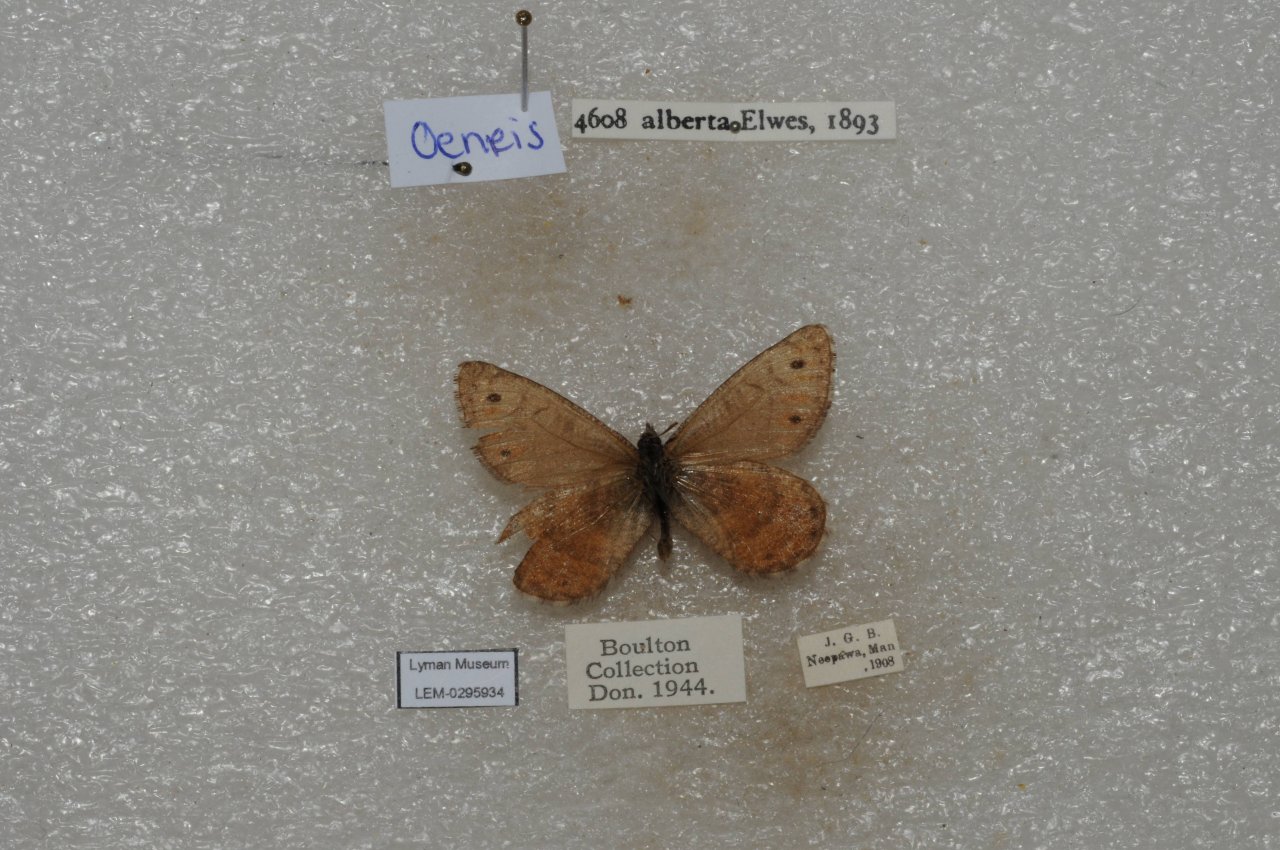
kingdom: Animalia
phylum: Arthropoda
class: Insecta
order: Lepidoptera
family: Nymphalidae
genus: Oeneis
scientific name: Oeneis alberta
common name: Alberta Arctic
